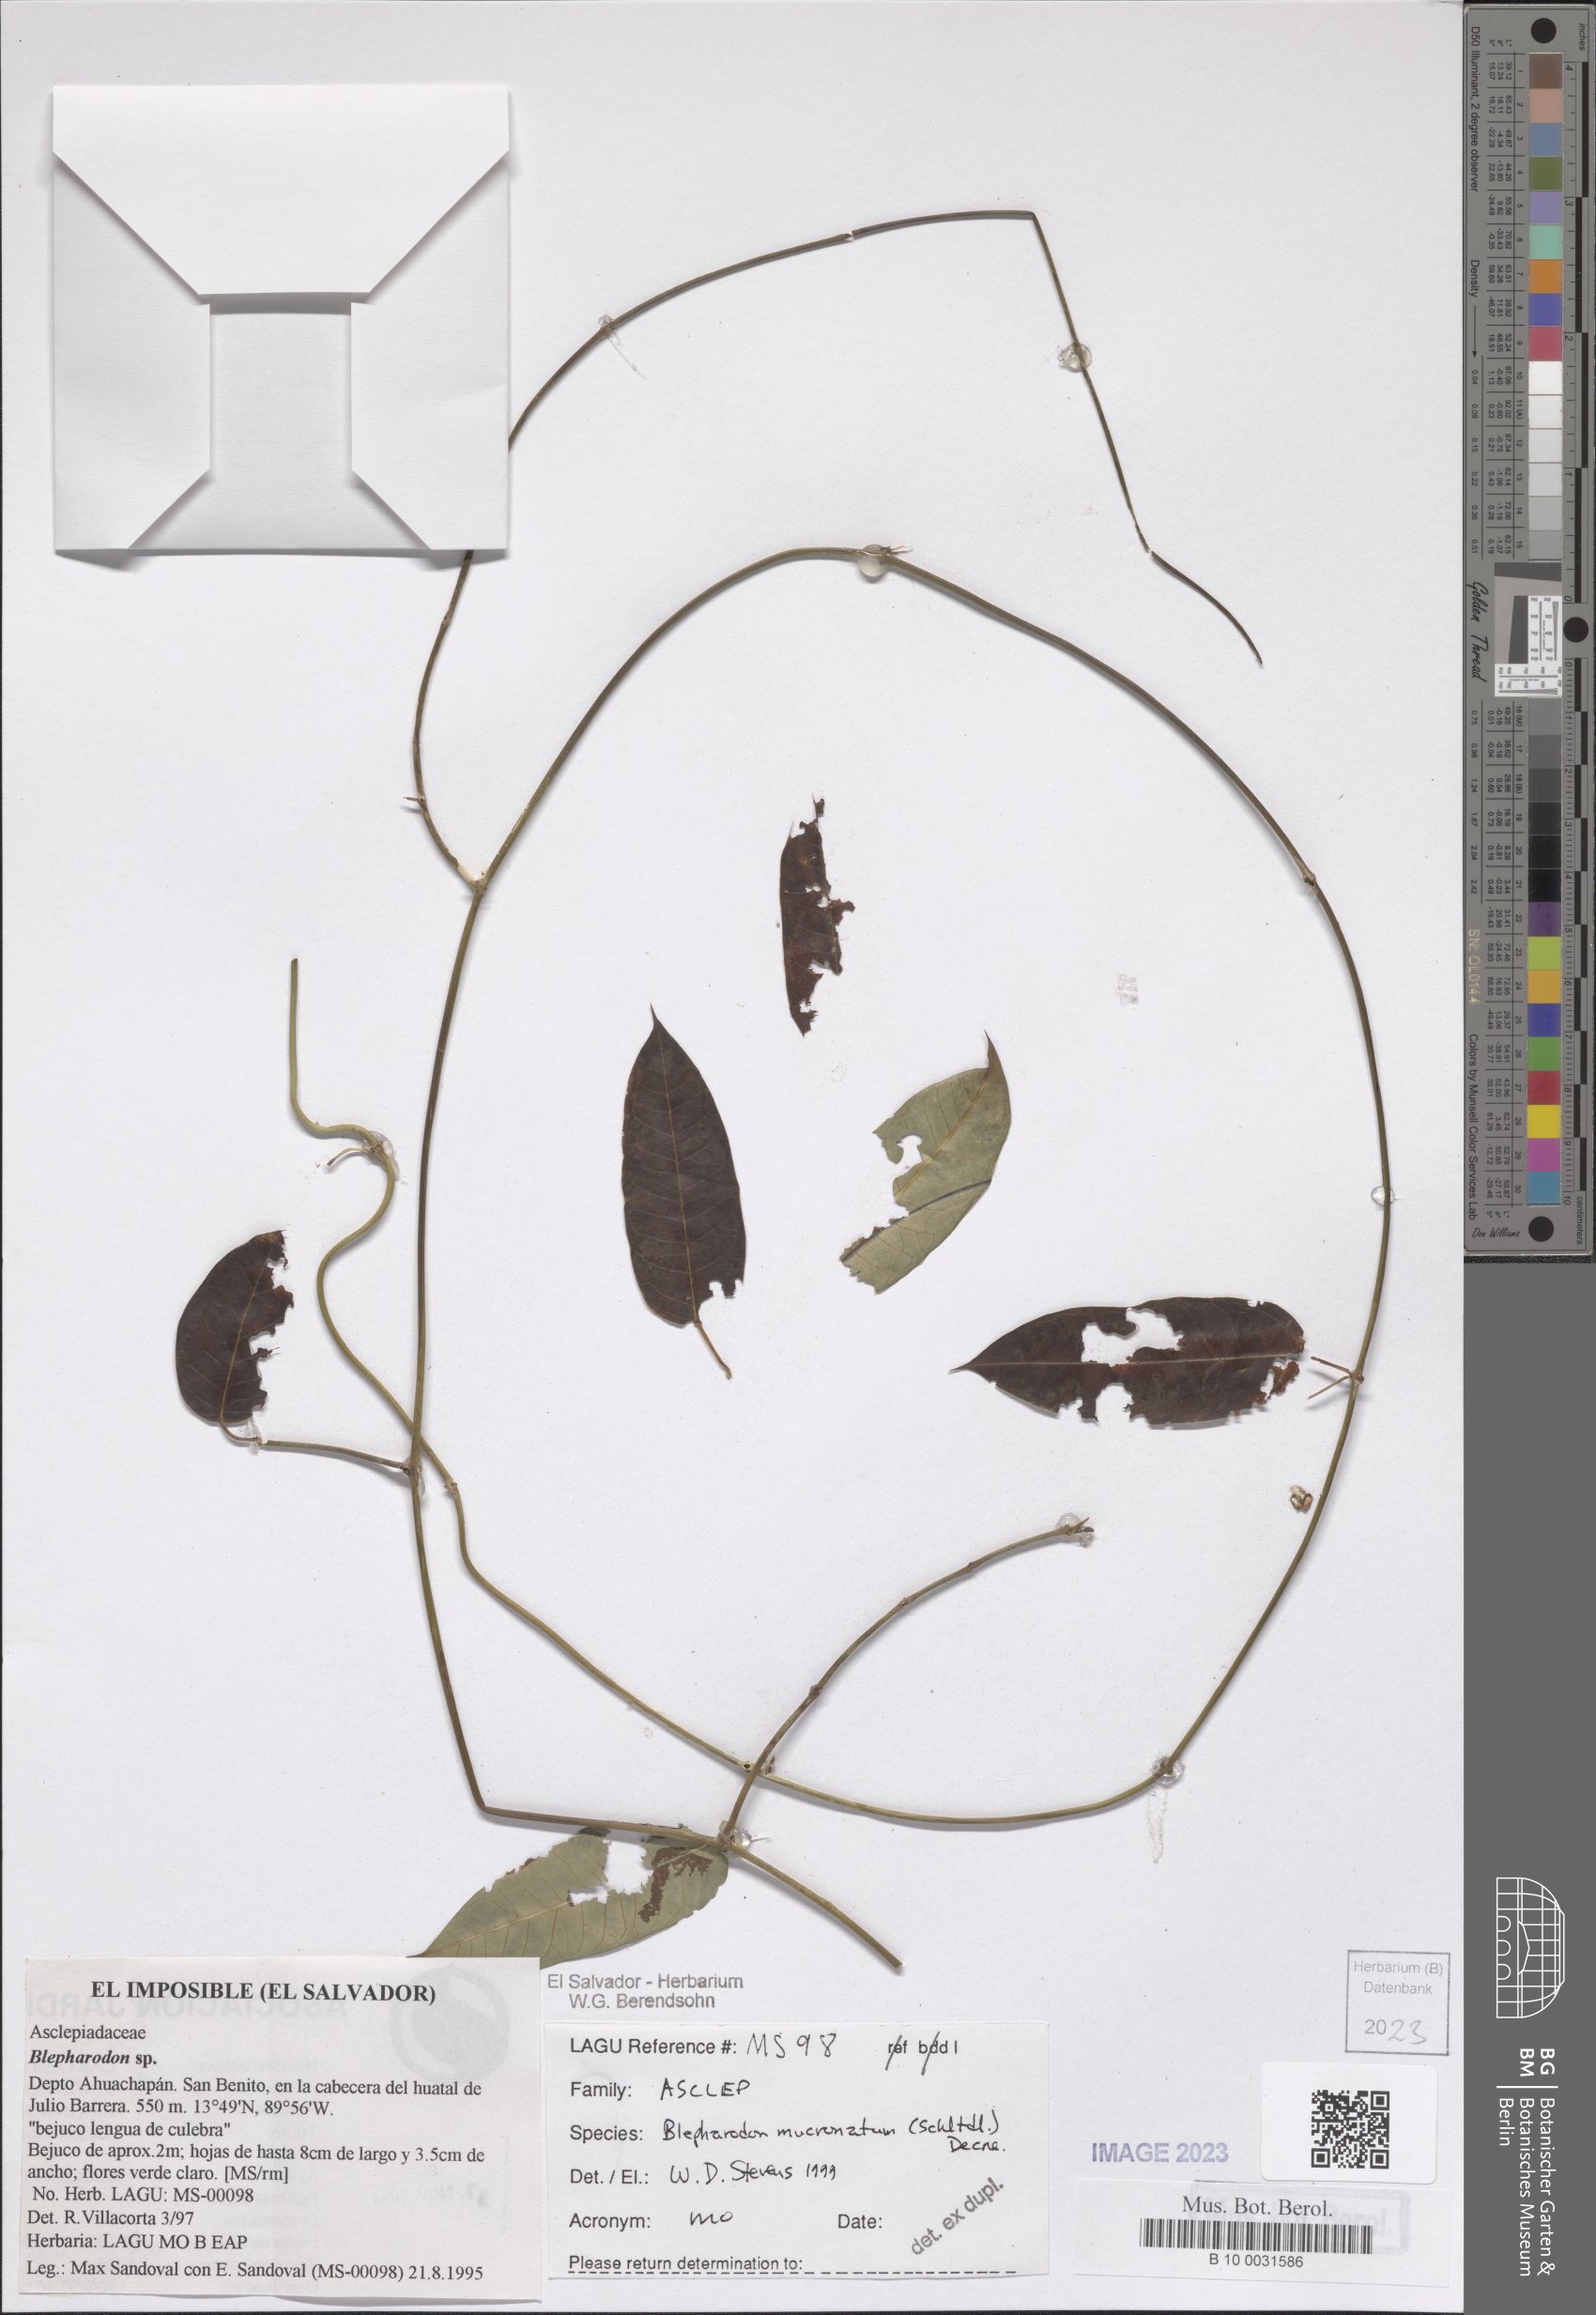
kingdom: Plantae
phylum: Tracheophyta
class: Magnoliopsida
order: Gentianales
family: Apocynaceae
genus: Vailia
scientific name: Vailia anomala
